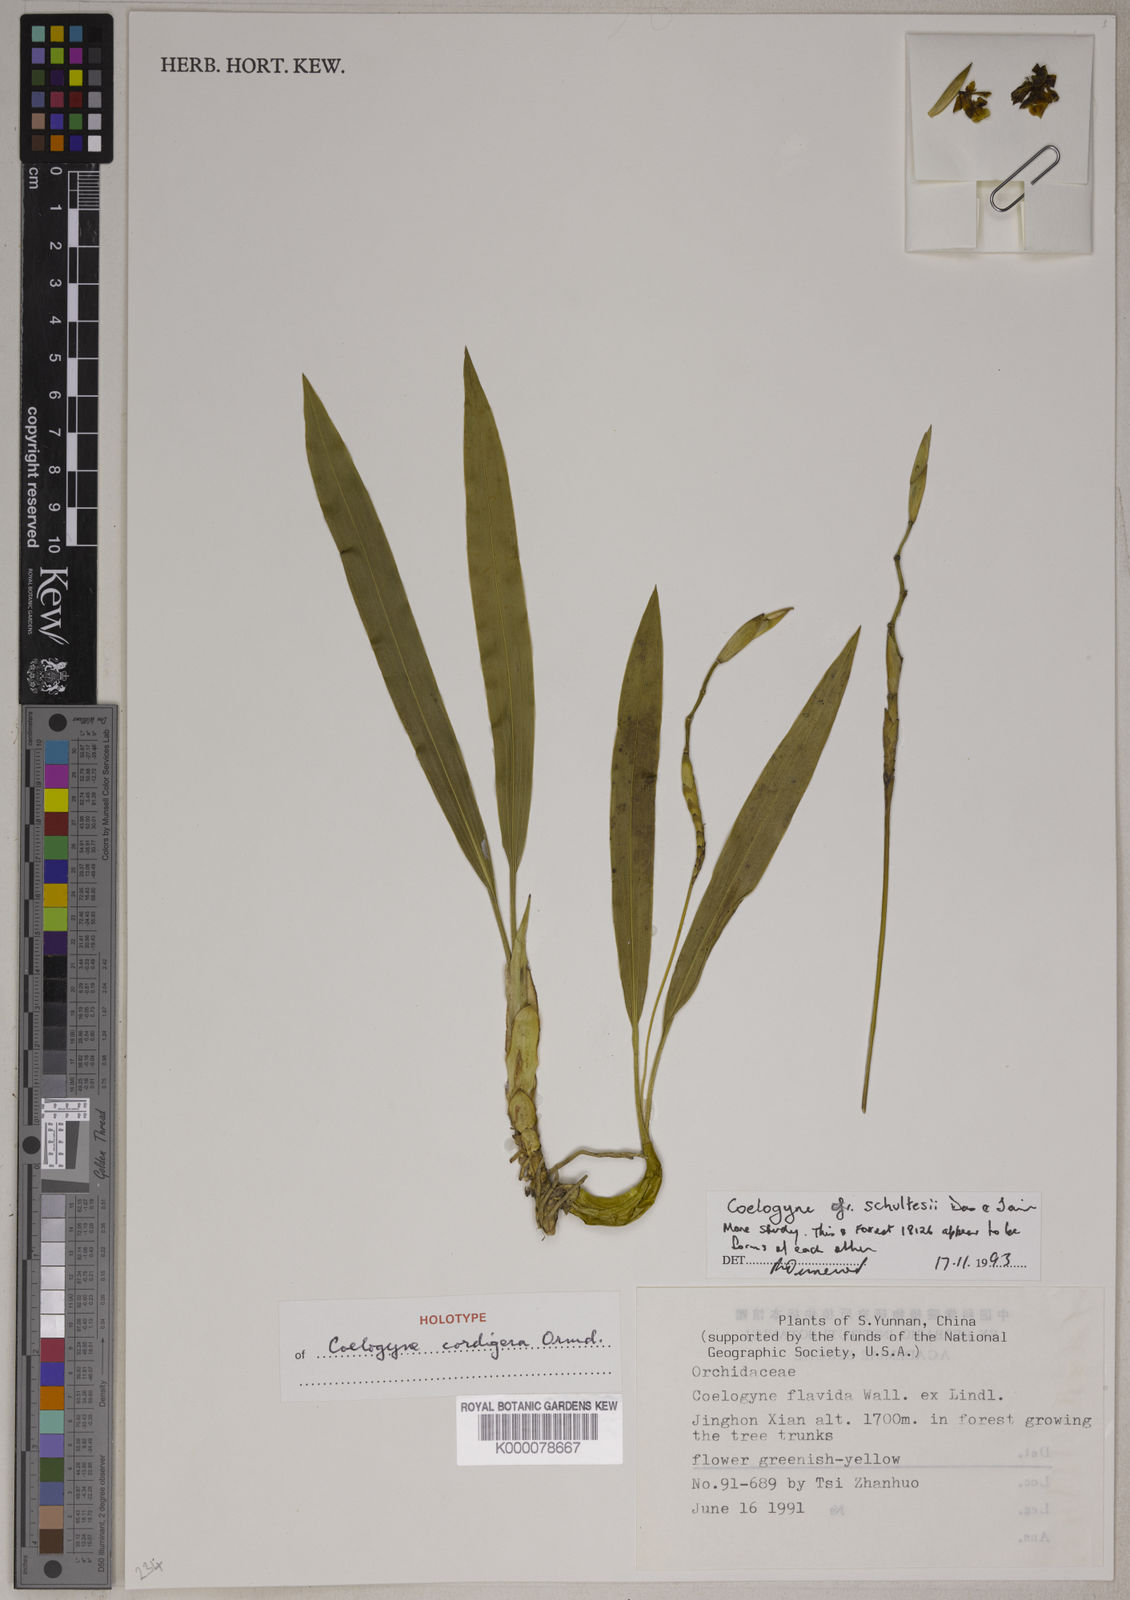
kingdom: Plantae
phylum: Tracheophyta
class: Liliopsida
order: Asparagales
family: Orchidaceae
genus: Coelogyne
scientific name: Coelogyne schultesii
